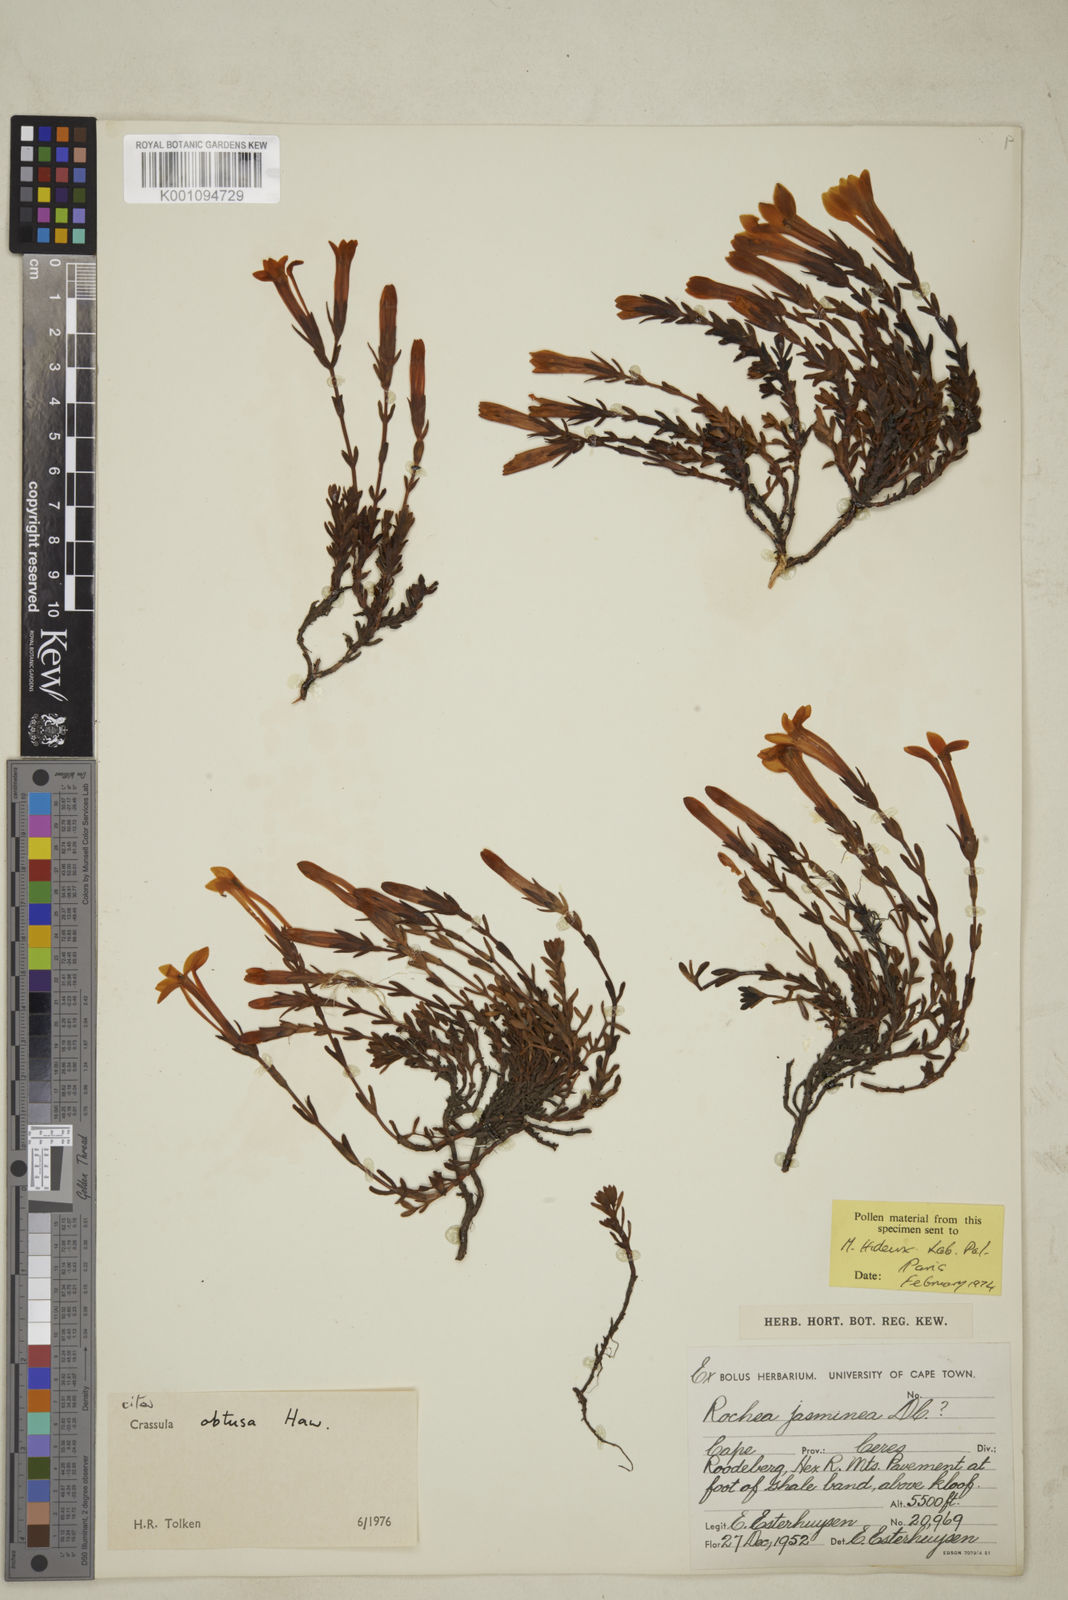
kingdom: Plantae
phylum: Tracheophyta
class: Magnoliopsida
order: Saxifragales
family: Crassulaceae
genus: Crassula
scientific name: Crassula obtusa
